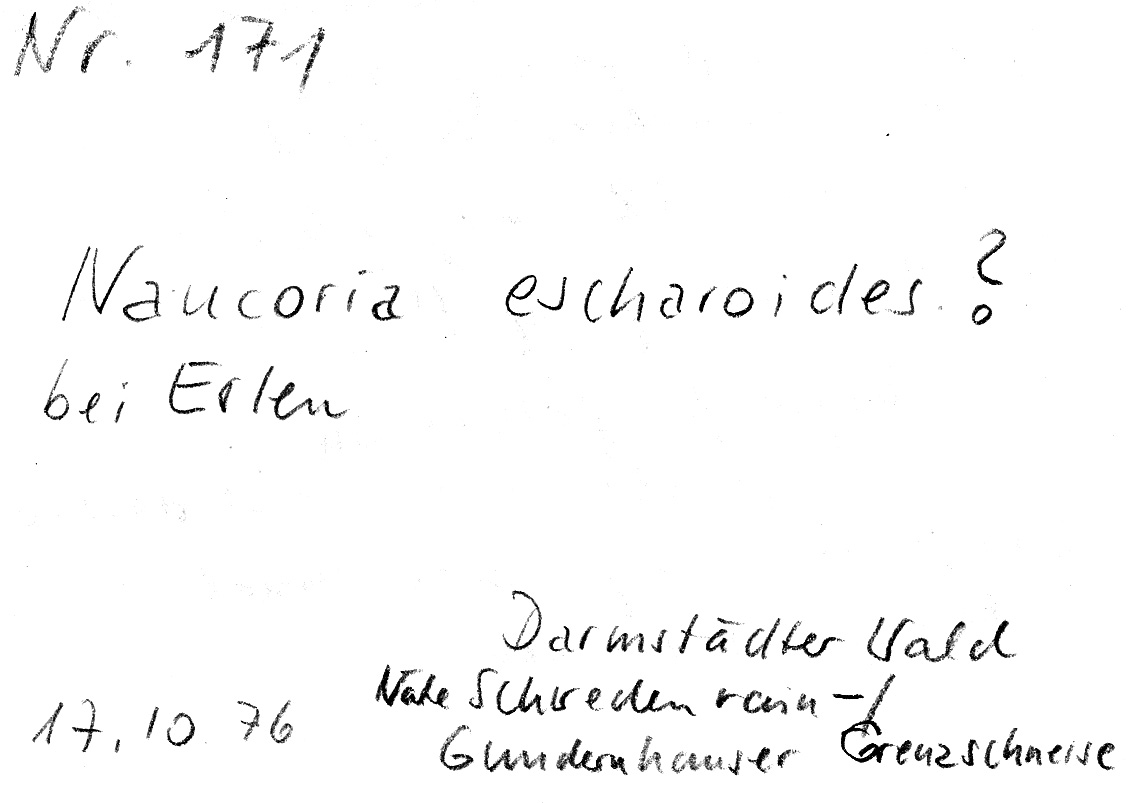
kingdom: Fungi
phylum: Basidiomycota
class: Agaricomycetes
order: Agaricales
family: Hymenogastraceae
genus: Naucoria
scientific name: Naucoria escharioides
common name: Ochre aldercap
